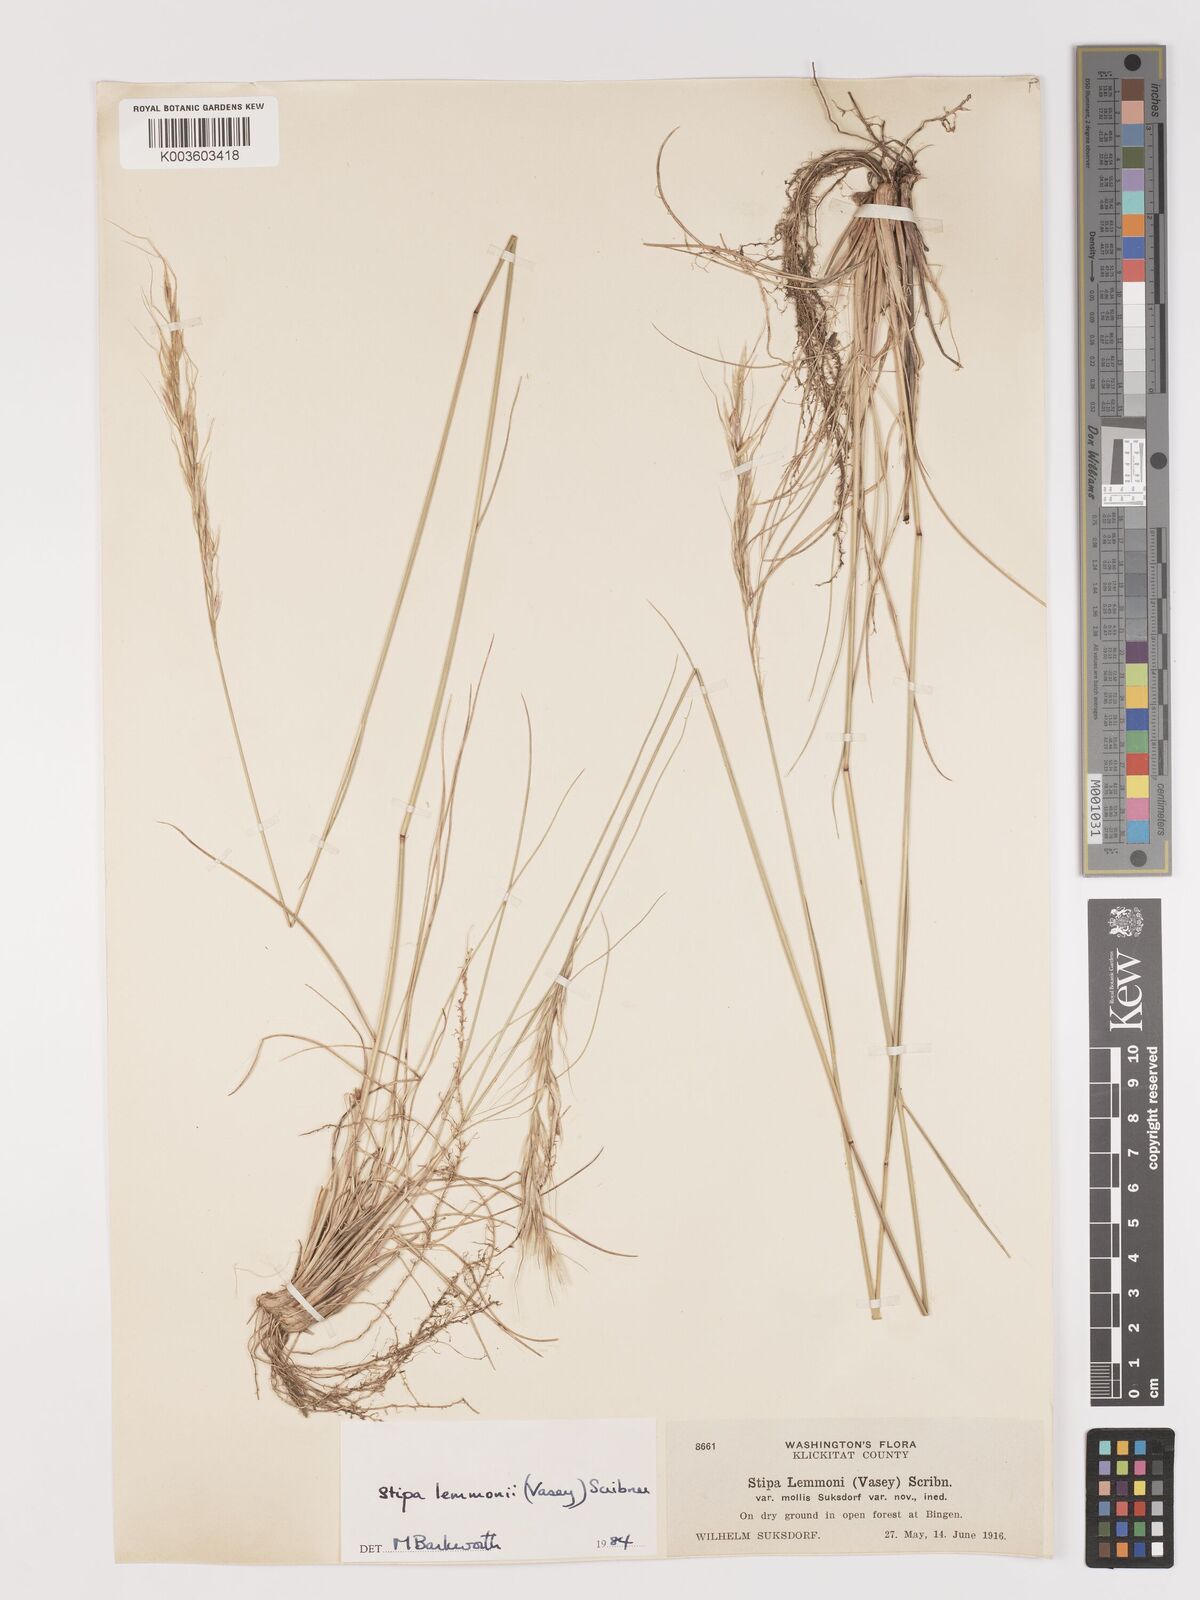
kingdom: Plantae
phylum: Tracheophyta
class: Liliopsida
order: Poales
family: Poaceae
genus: Eriocoma
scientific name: Eriocoma lemmonii
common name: Lemmon's needlegrass
